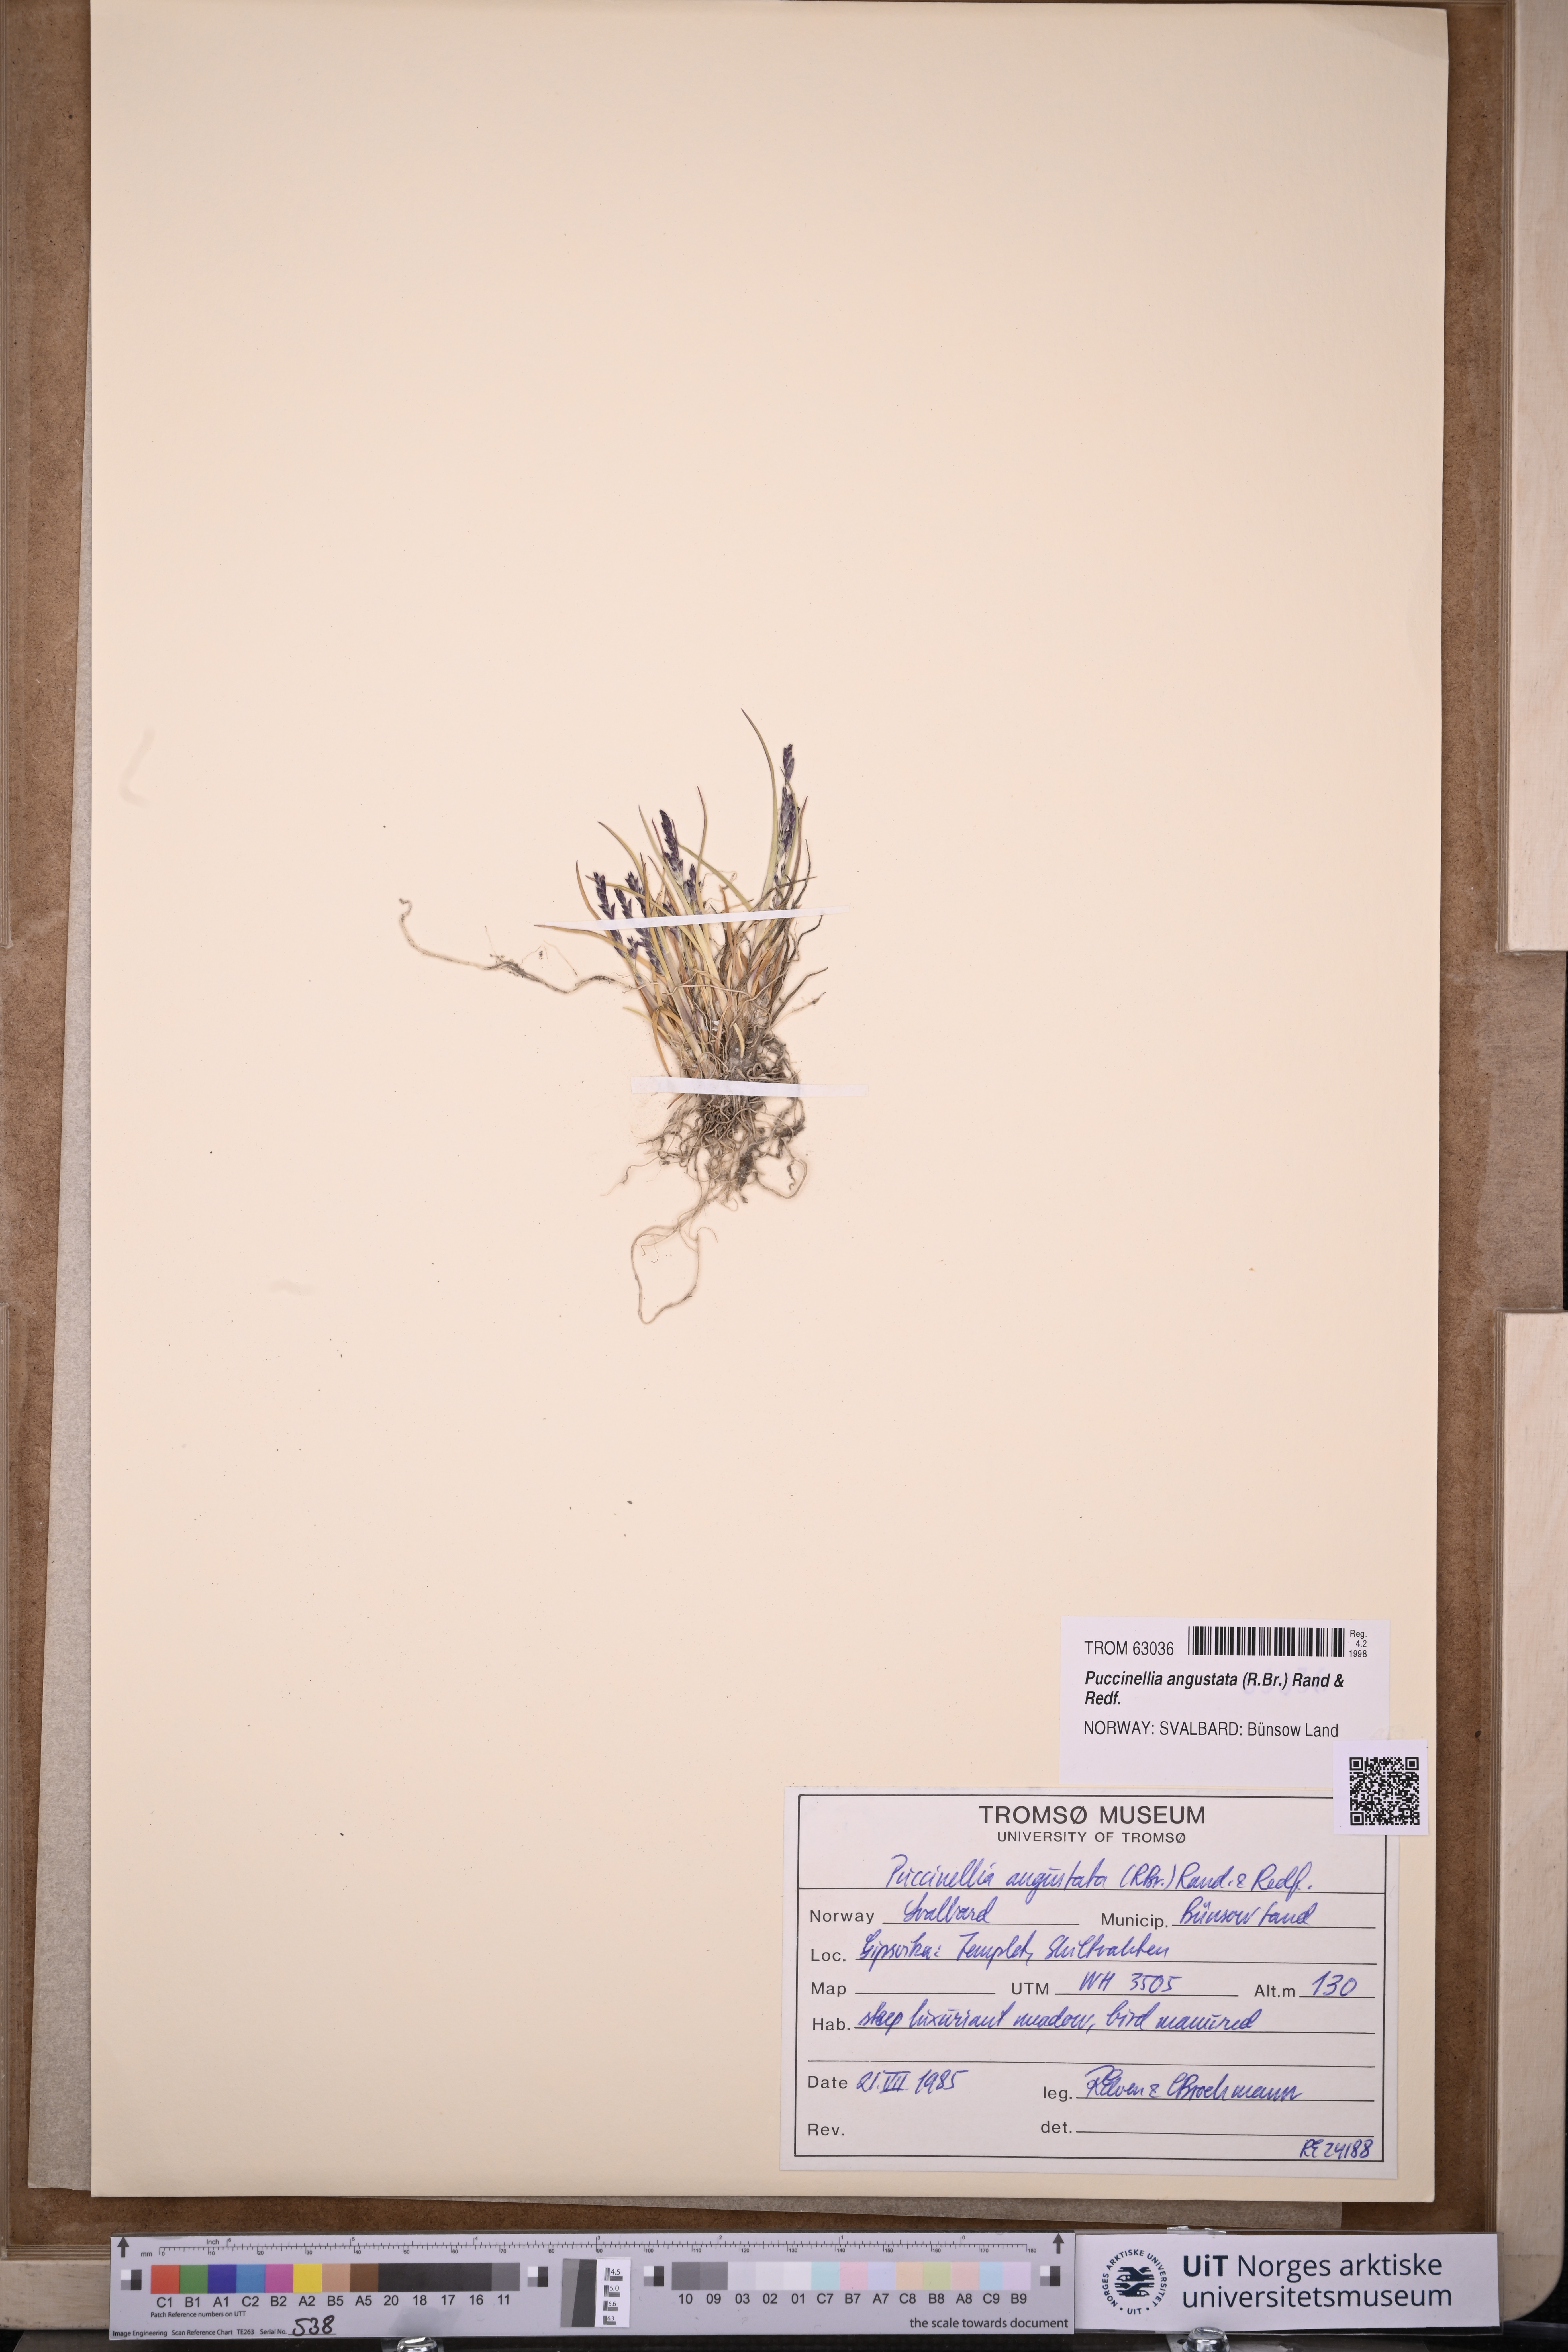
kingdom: Plantae
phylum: Tracheophyta
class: Liliopsida
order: Poales
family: Poaceae
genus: Puccinellia
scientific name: Puccinellia angustata
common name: Narrow alkaligrass
